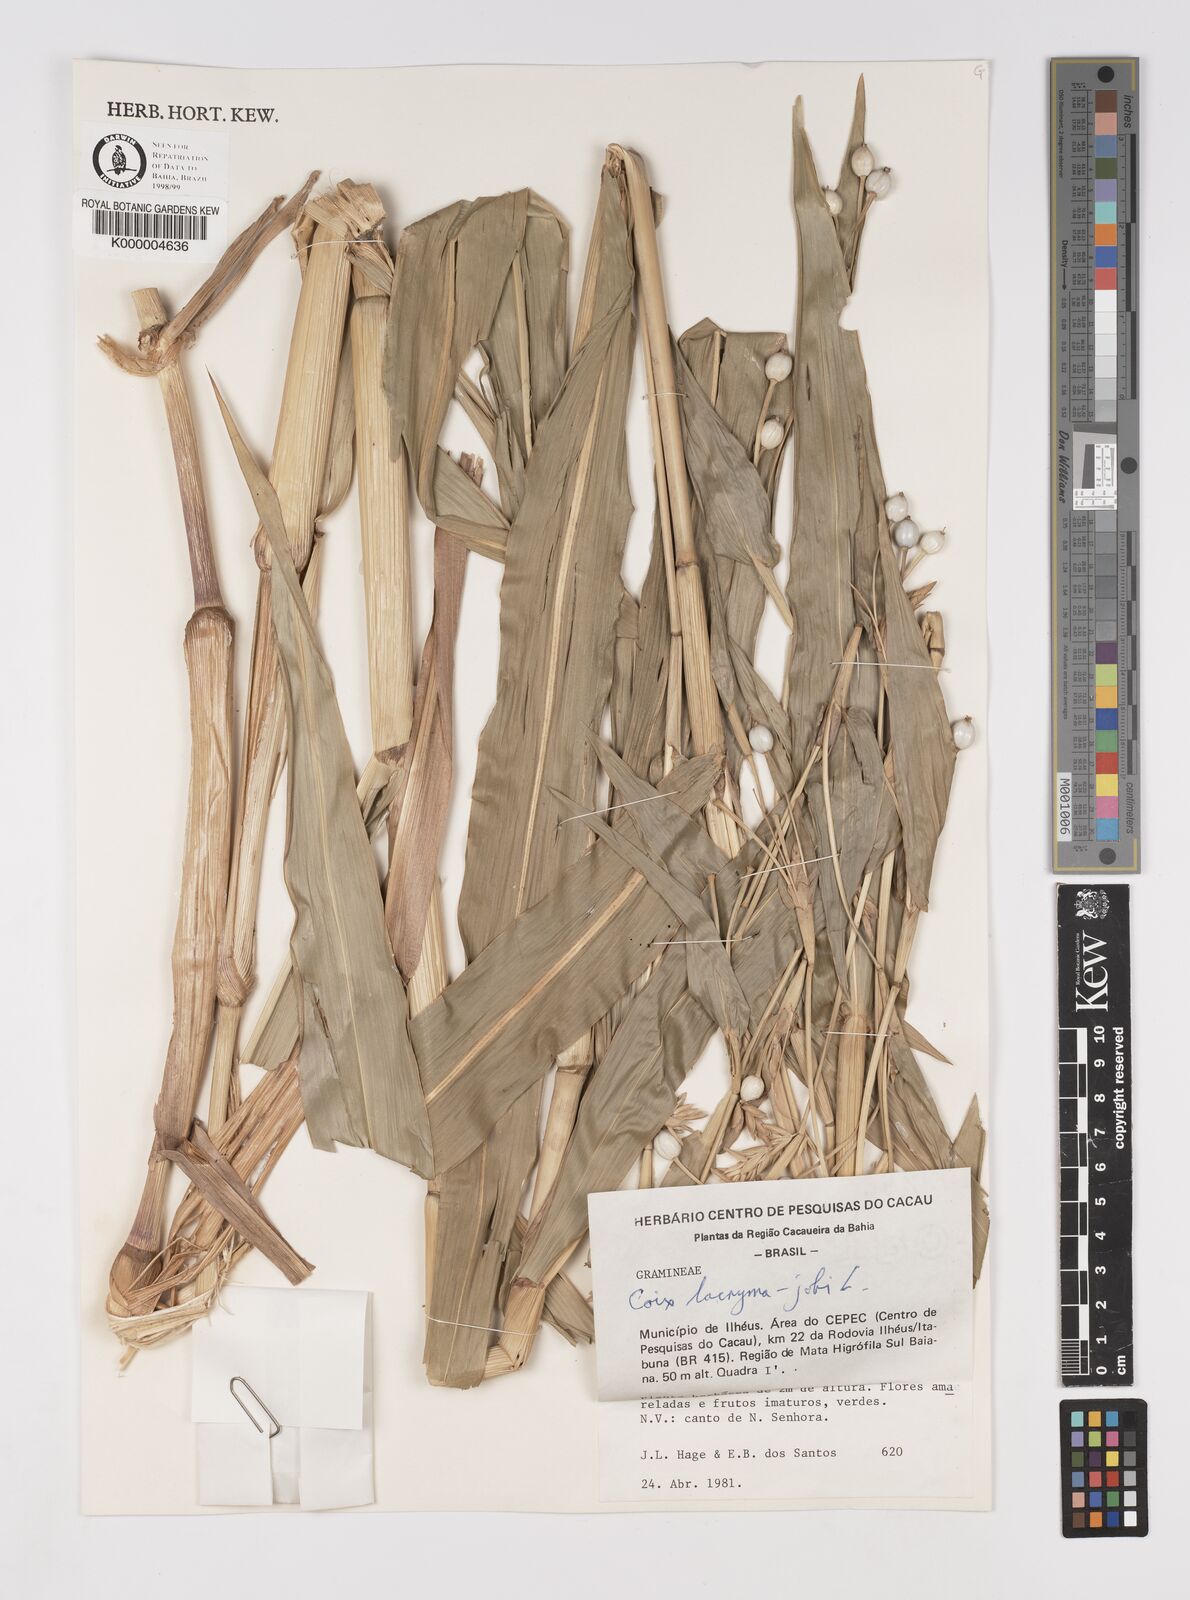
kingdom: Plantae
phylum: Tracheophyta
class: Liliopsida
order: Poales
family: Poaceae
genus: Coix
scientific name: Coix lacryma-jobi
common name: Job's tears
